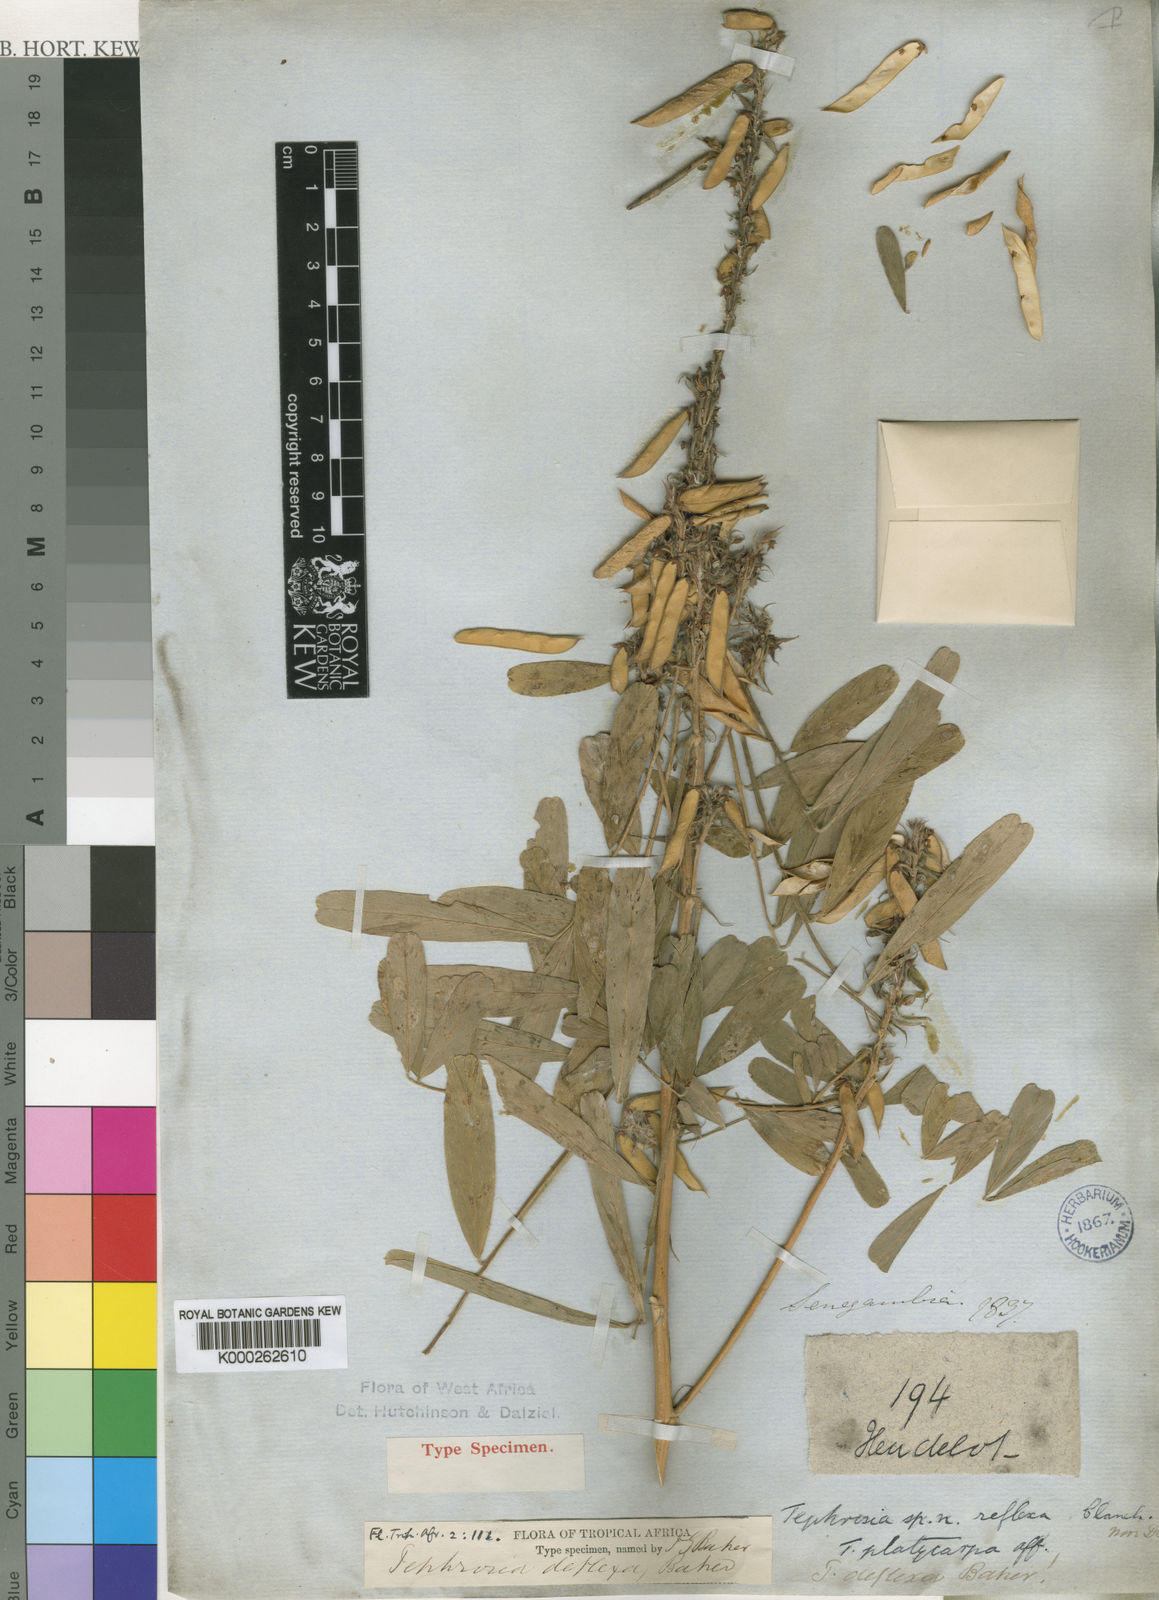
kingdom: Plantae
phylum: Tracheophyta
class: Magnoliopsida
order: Fabales
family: Fabaceae
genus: Tephrosia
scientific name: Tephrosia deflexa
